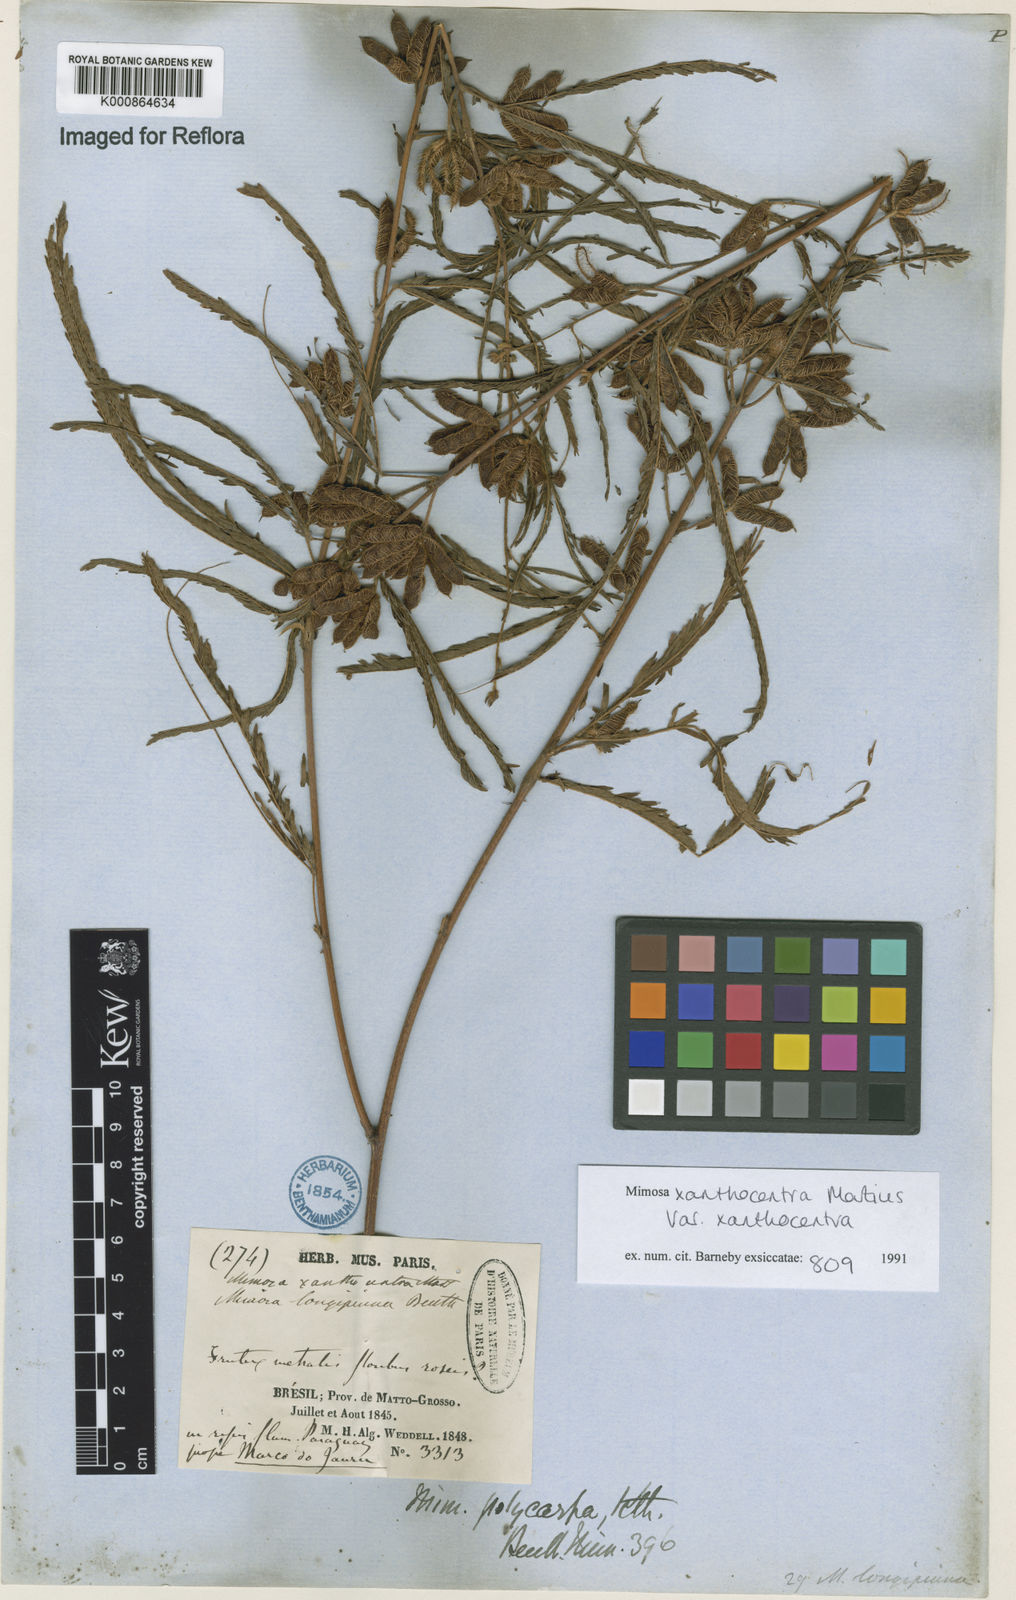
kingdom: Plantae
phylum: Tracheophyta
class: Magnoliopsida
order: Fabales
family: Fabaceae
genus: Mimosa
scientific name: Mimosa xanthocentra
